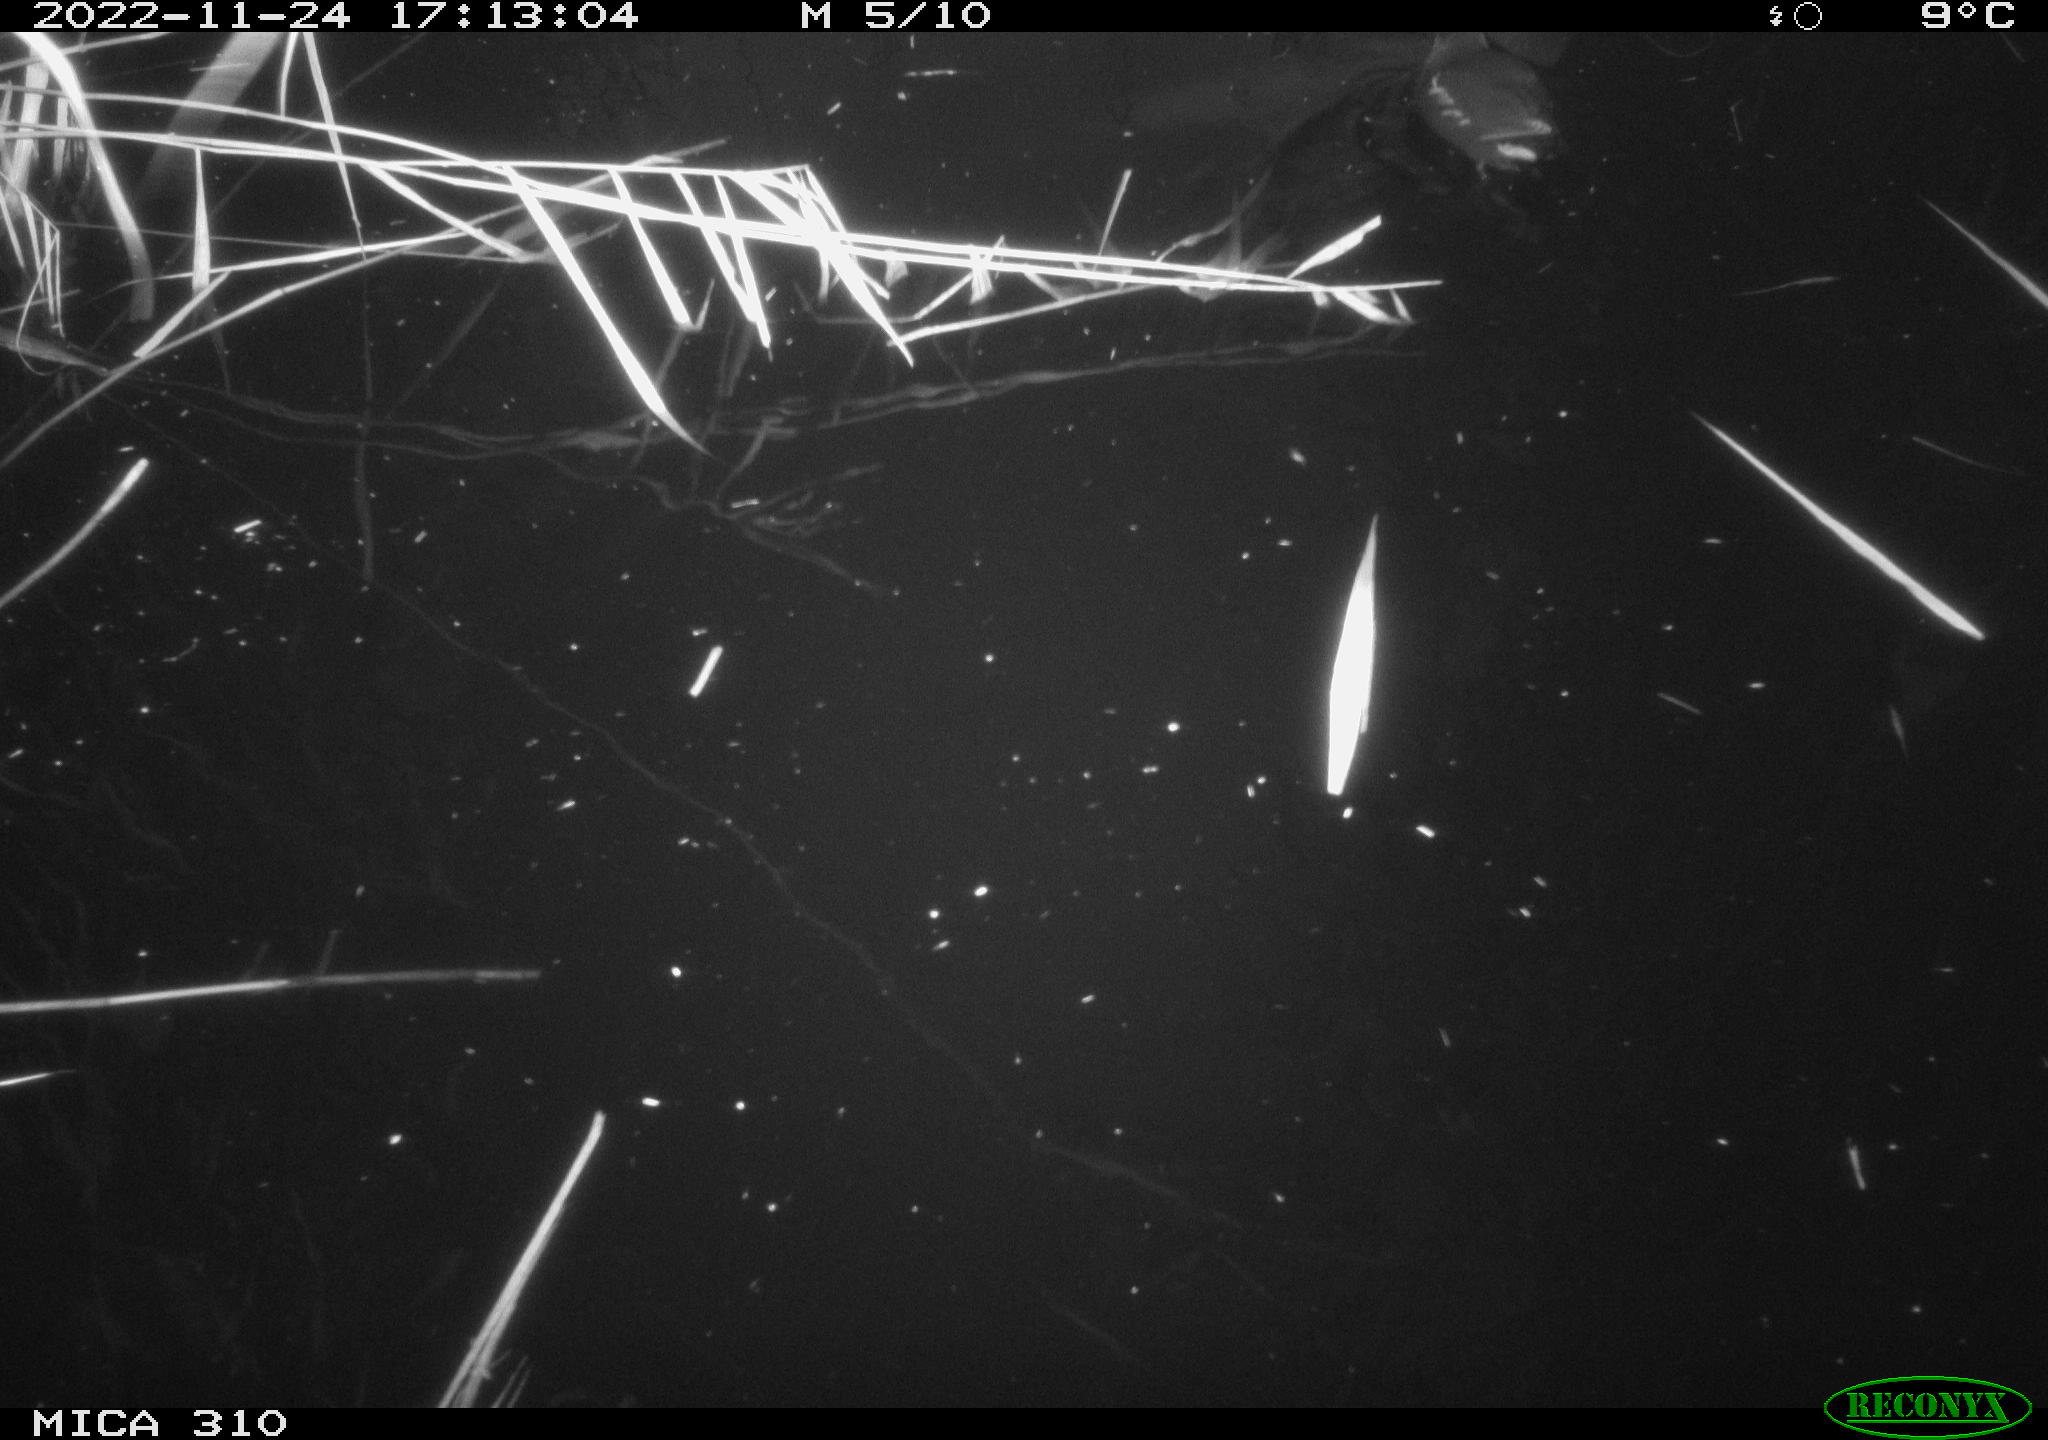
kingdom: Animalia
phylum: Chordata
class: Aves
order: Gruiformes
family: Rallidae
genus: Gallinula
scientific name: Gallinula chloropus
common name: Common moorhen
